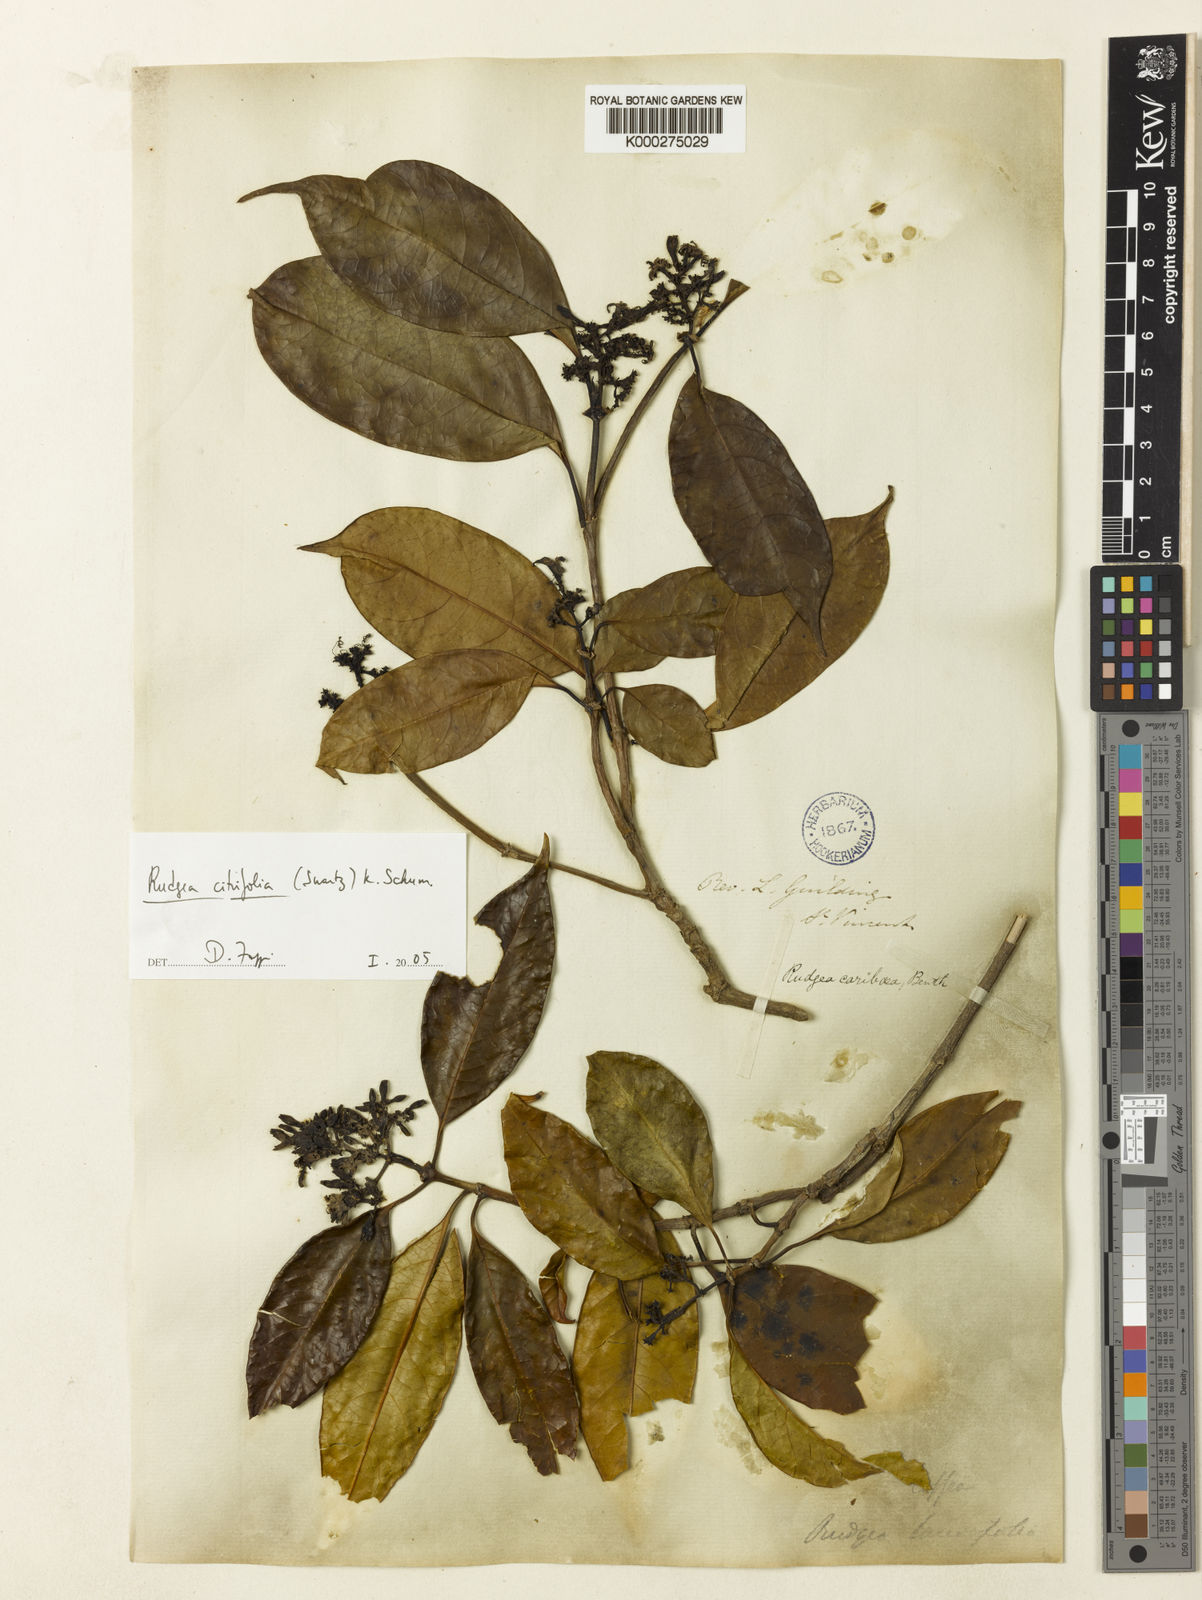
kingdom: Plantae
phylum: Tracheophyta
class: Magnoliopsida
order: Gentianales
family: Rubiaceae
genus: Rudgea
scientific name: Rudgea citrifolia
